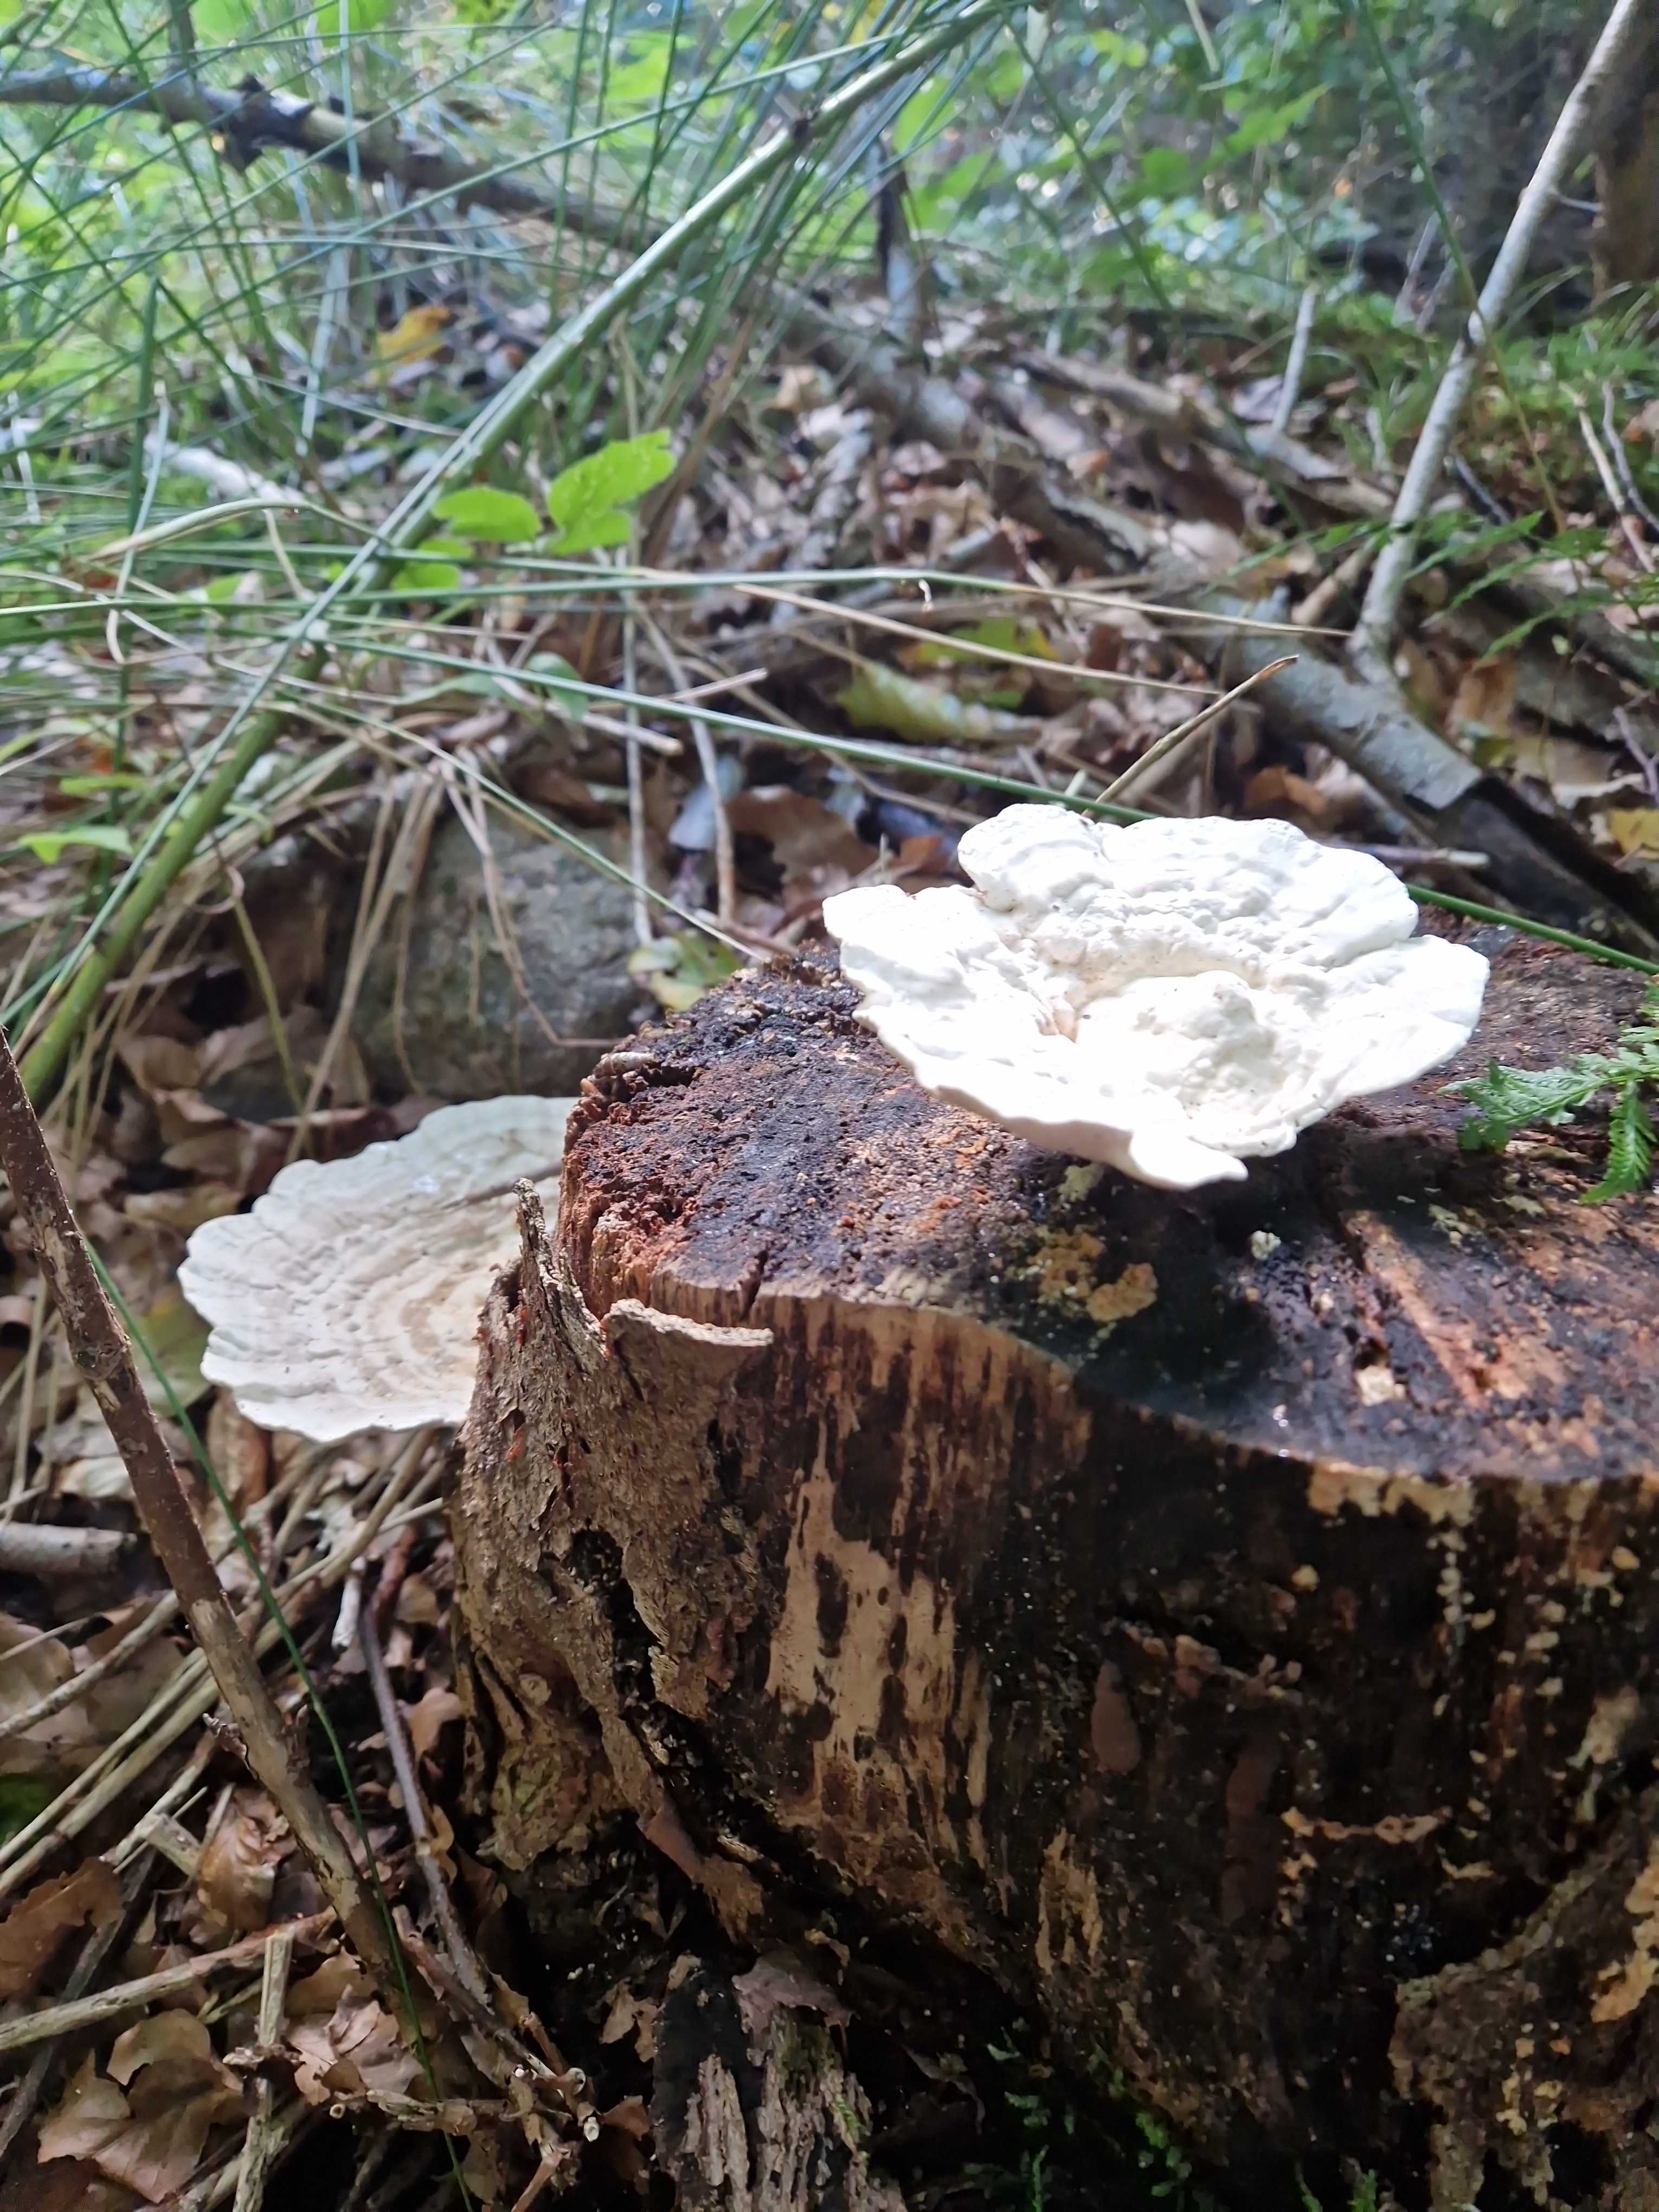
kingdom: Fungi
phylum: Basidiomycota
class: Agaricomycetes
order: Polyporales
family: Polyporaceae
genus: Trametes
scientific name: Trametes gibbosa
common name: puklet læderporesvamp
